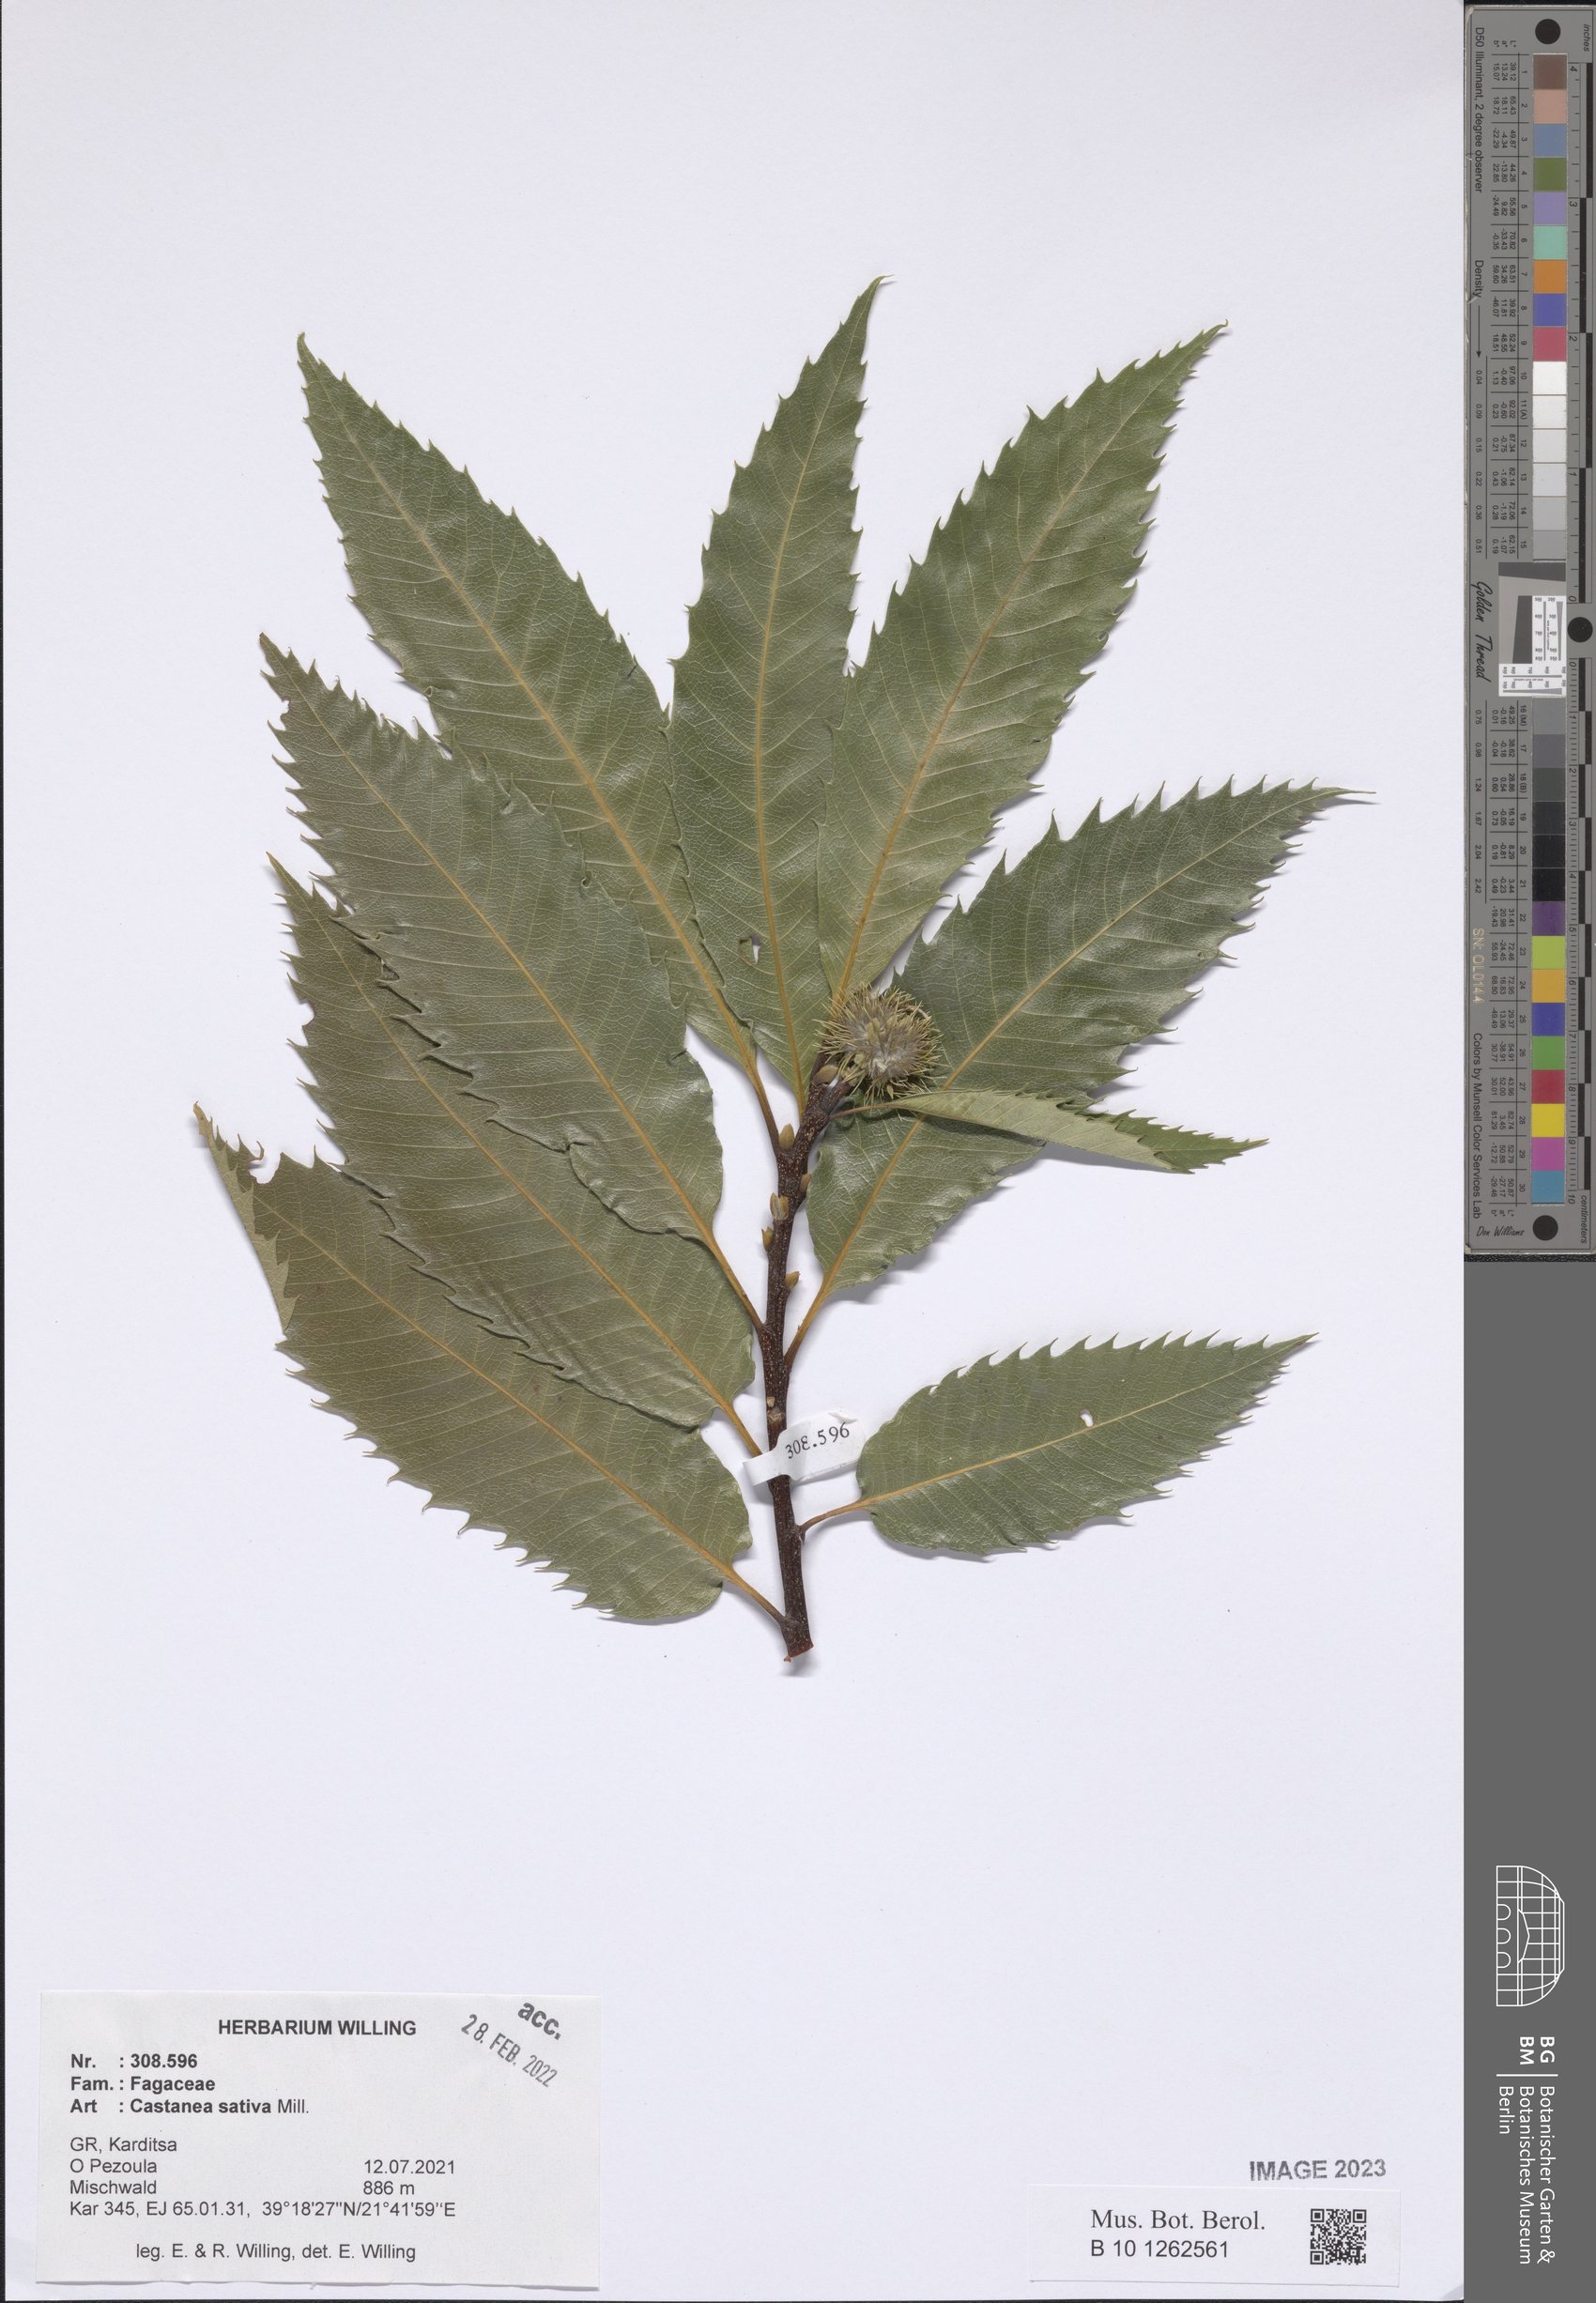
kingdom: Plantae
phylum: Tracheophyta
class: Magnoliopsida
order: Fagales
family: Fagaceae
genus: Castanea
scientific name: Castanea sativa
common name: Sweet chestnut
